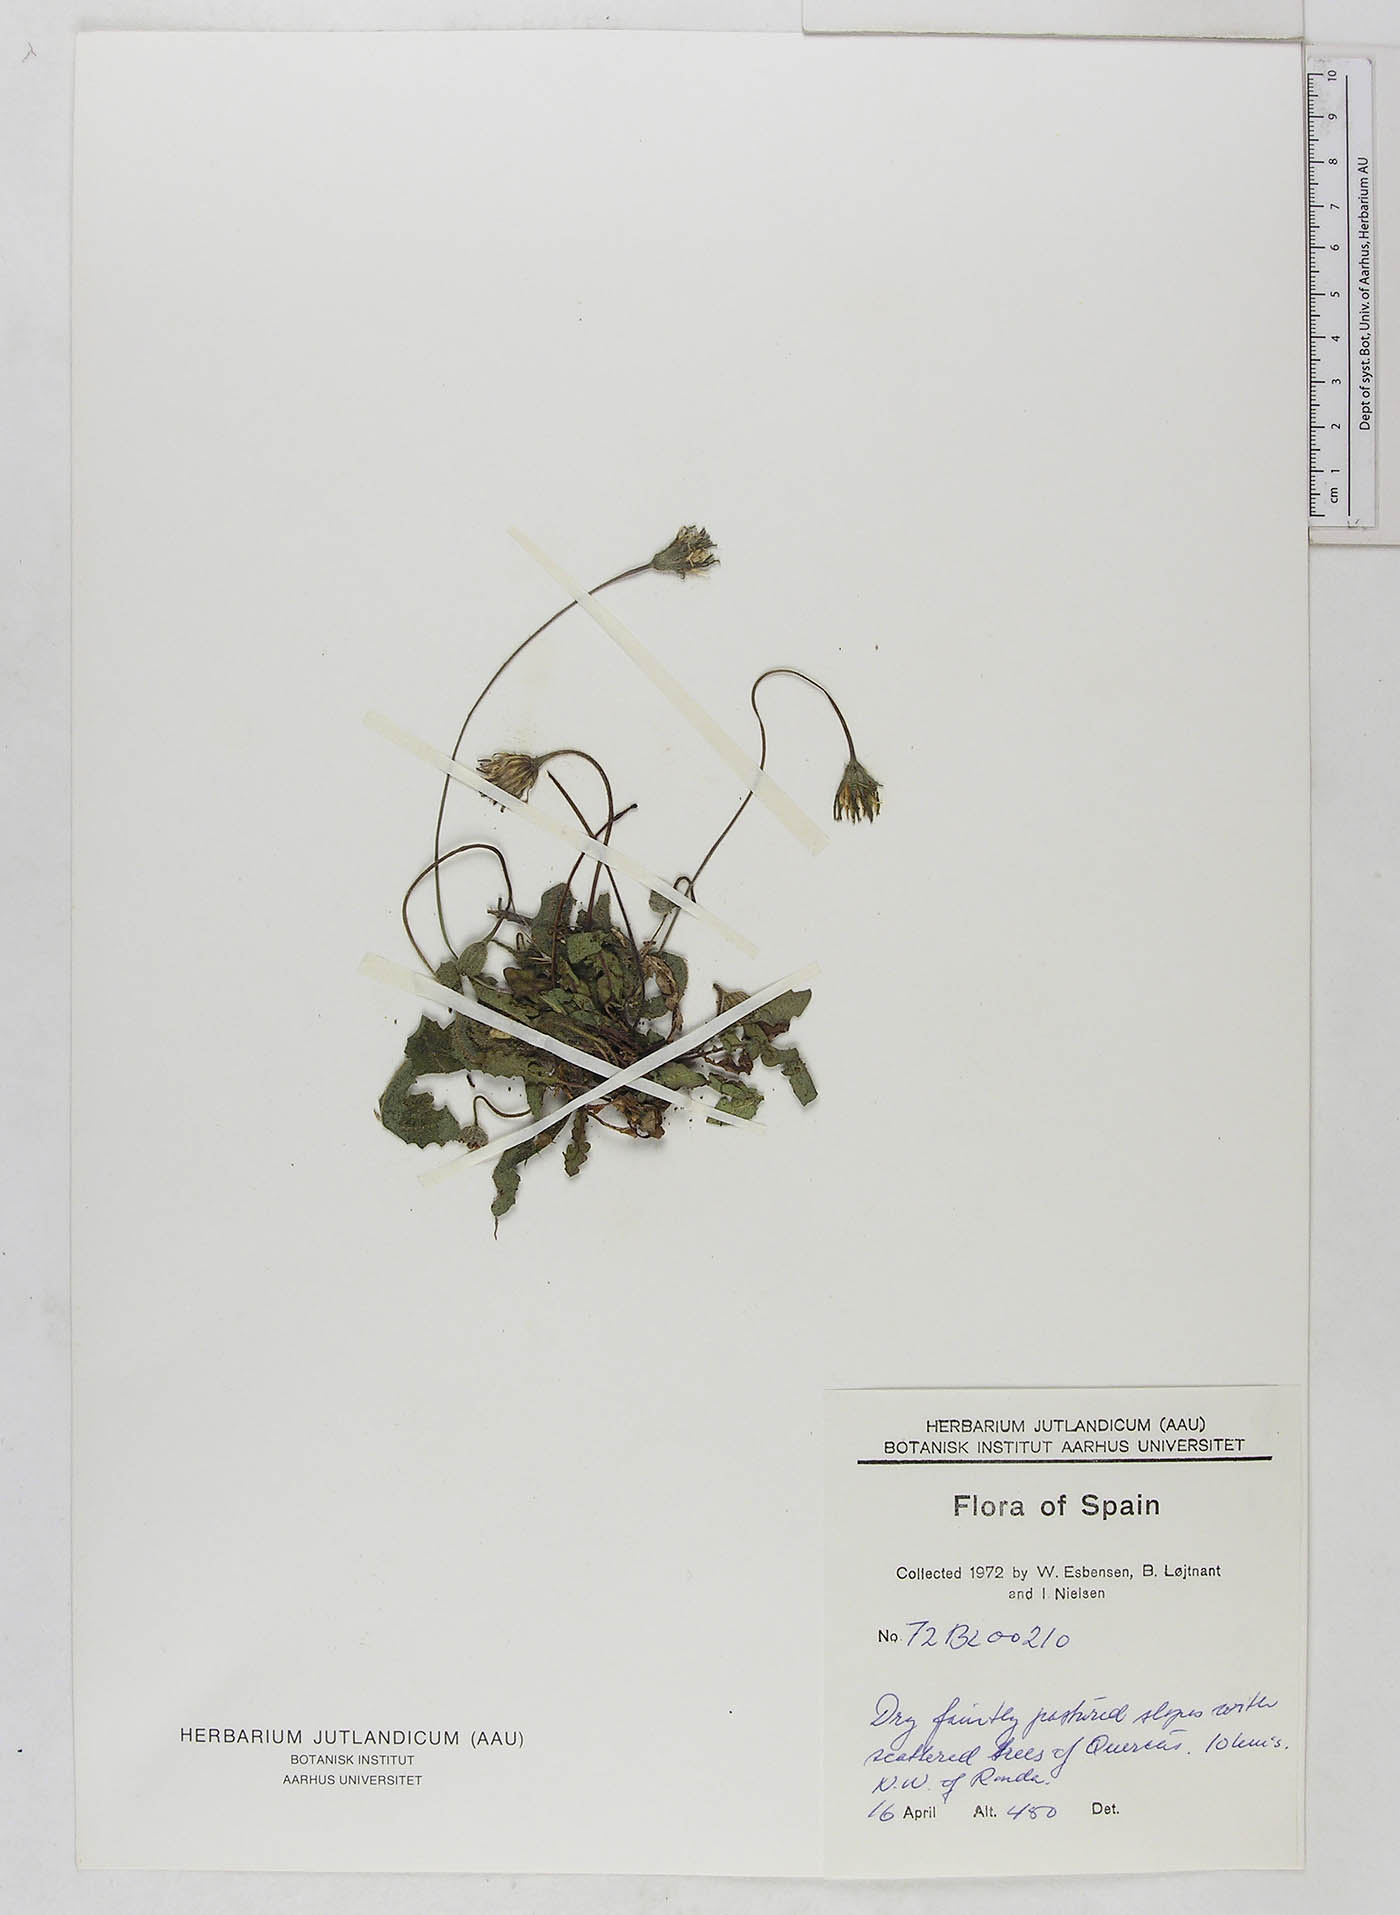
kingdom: Plantae
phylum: Tracheophyta
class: Magnoliopsida
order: Asterales
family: Asteraceae
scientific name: Asteraceae
